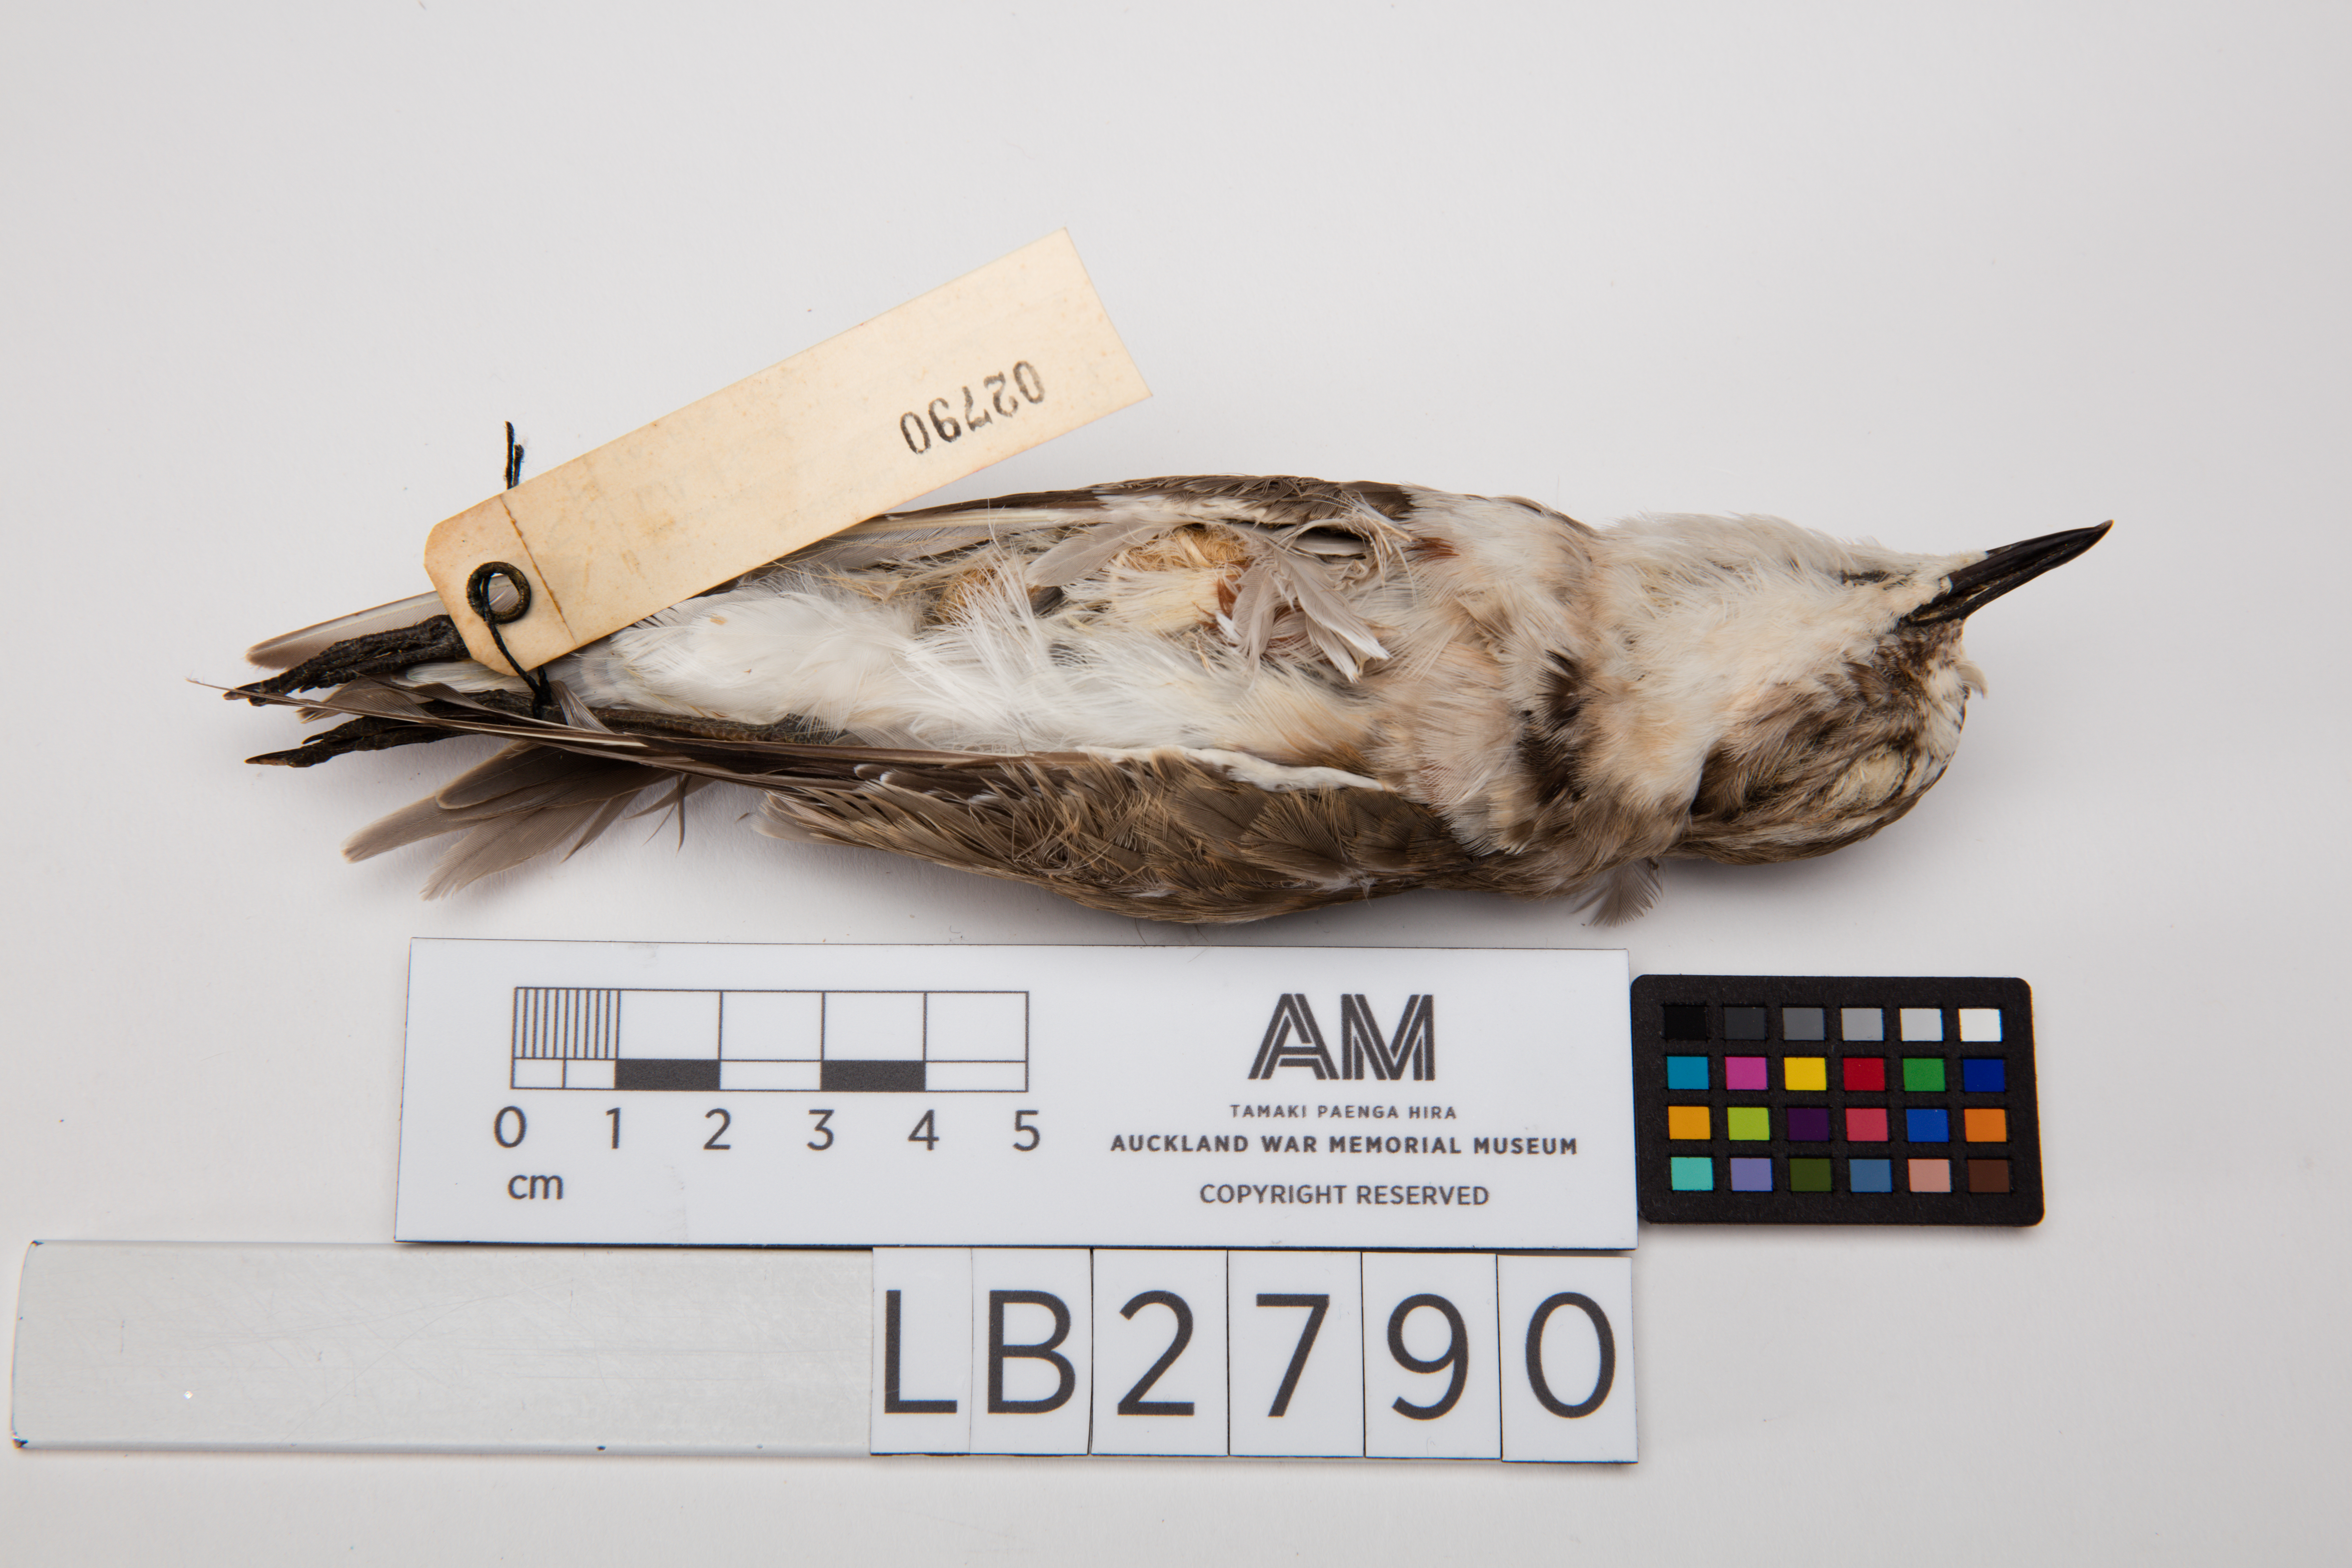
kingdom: Animalia
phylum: Chordata
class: Aves
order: Charadriiformes
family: Charadriidae
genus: Charadrius
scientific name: Charadrius bicinctus
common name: Double-banded plover
